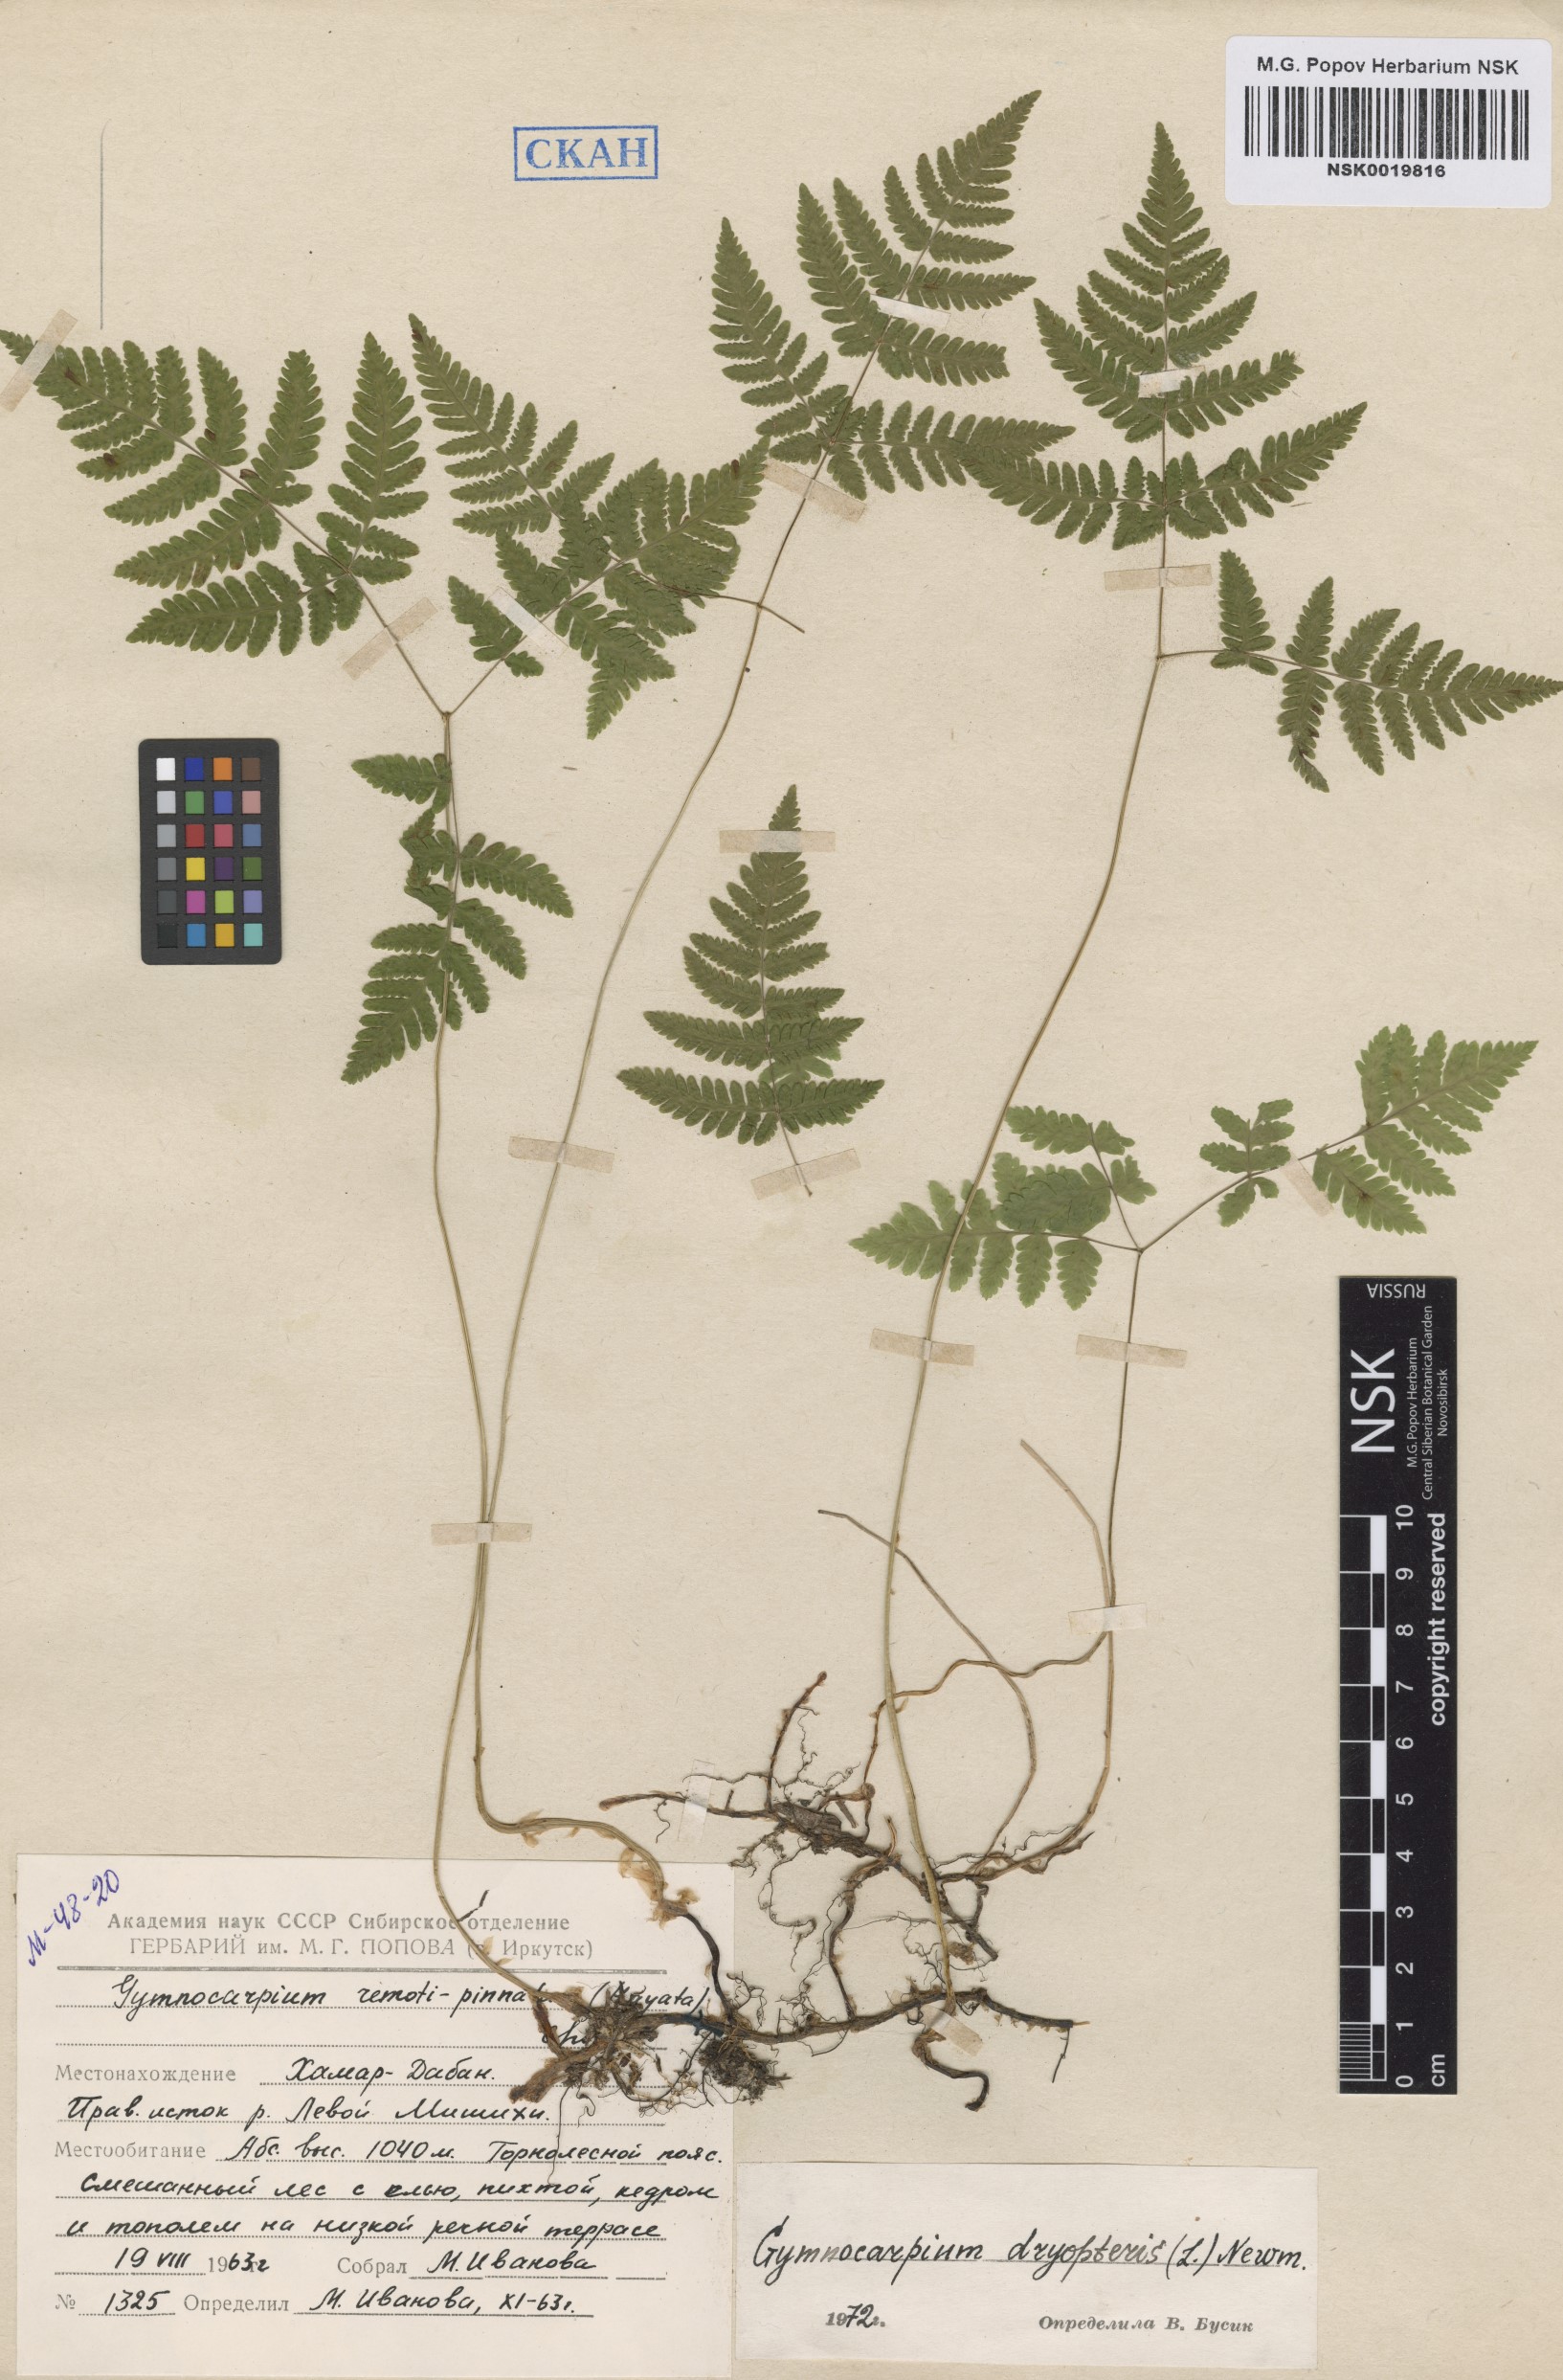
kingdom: Plantae
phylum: Tracheophyta
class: Polypodiopsida
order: Polypodiales
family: Cystopteridaceae
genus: Gymnocarpium
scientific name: Gymnocarpium dryopteris
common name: Oak fern
